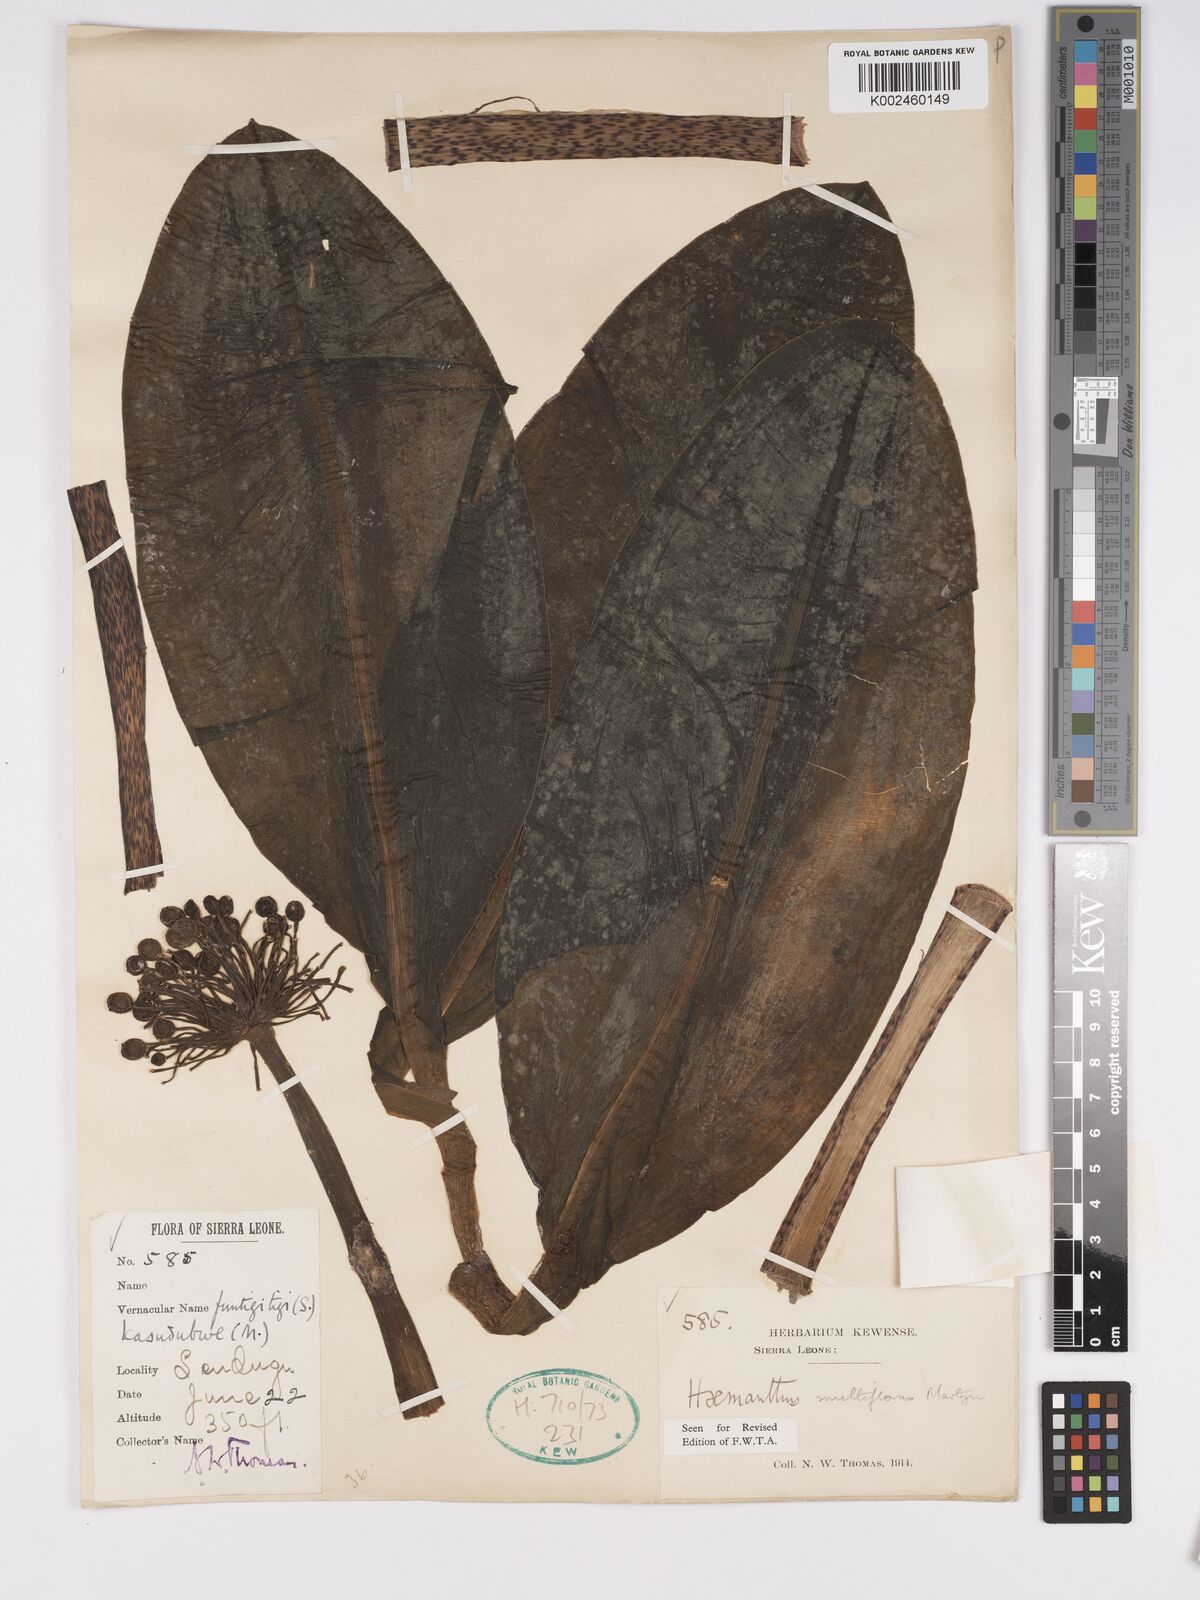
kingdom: Plantae
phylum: Tracheophyta
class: Liliopsida
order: Asparagales
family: Amaryllidaceae
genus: Scadoxus
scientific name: Scadoxus multiflorus
